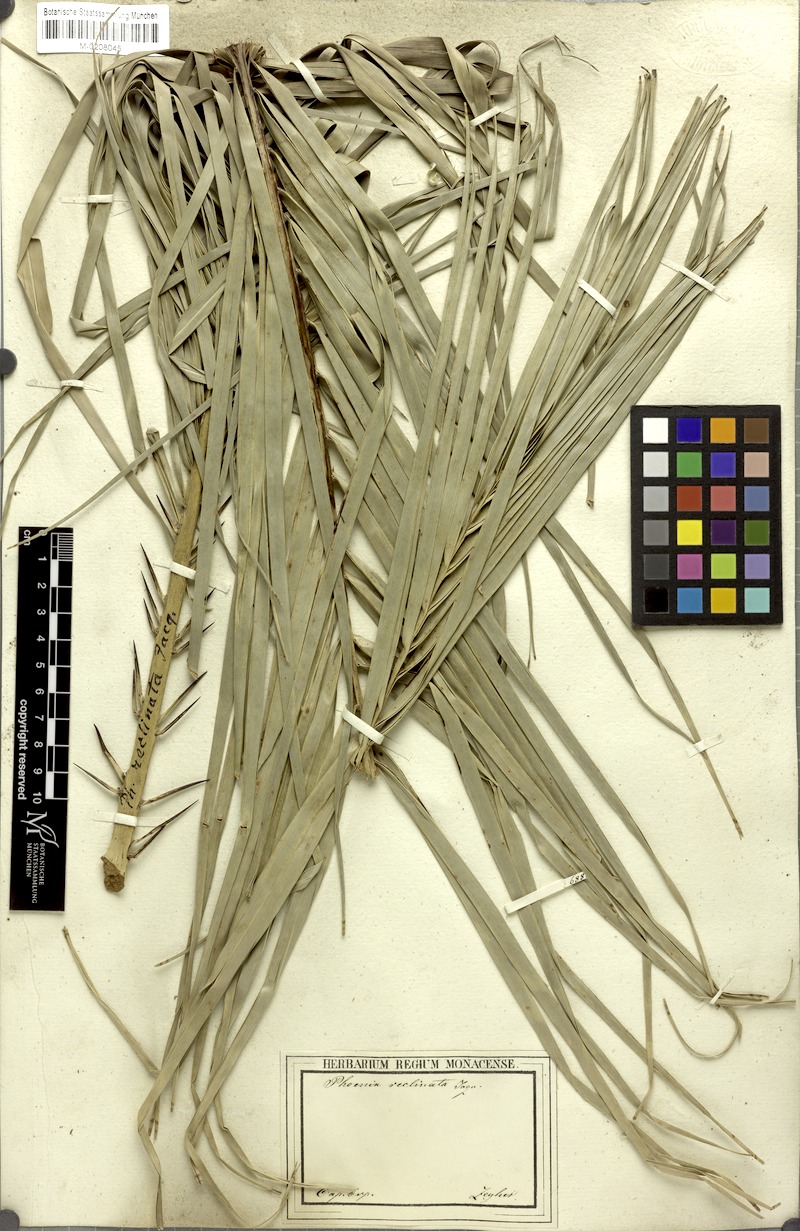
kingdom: Plantae
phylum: Tracheophyta
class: Liliopsida
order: Arecales
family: Arecaceae
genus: Phoenix
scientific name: Phoenix reclinata
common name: Senegal date palm
